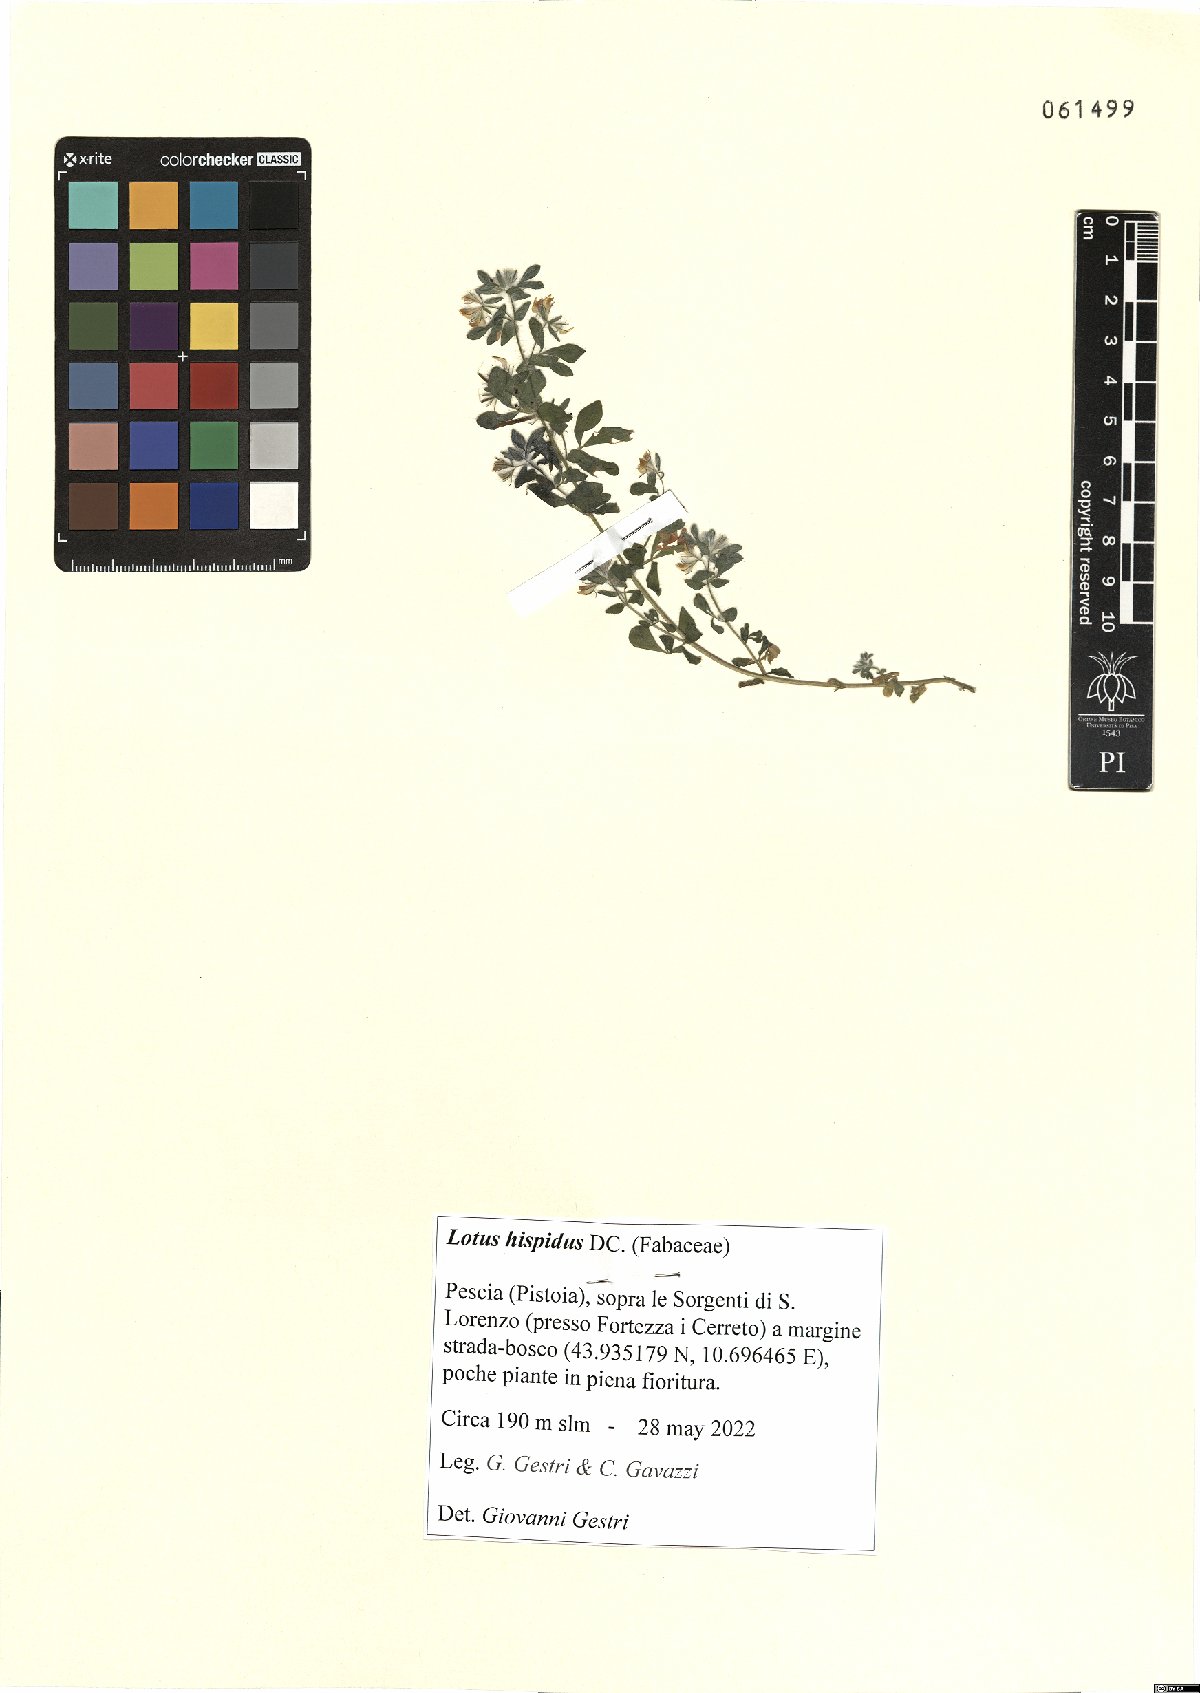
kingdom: Plantae
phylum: Tracheophyta
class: Magnoliopsida
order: Fabales
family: Fabaceae
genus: Lotus
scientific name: Lotus parviflorus
